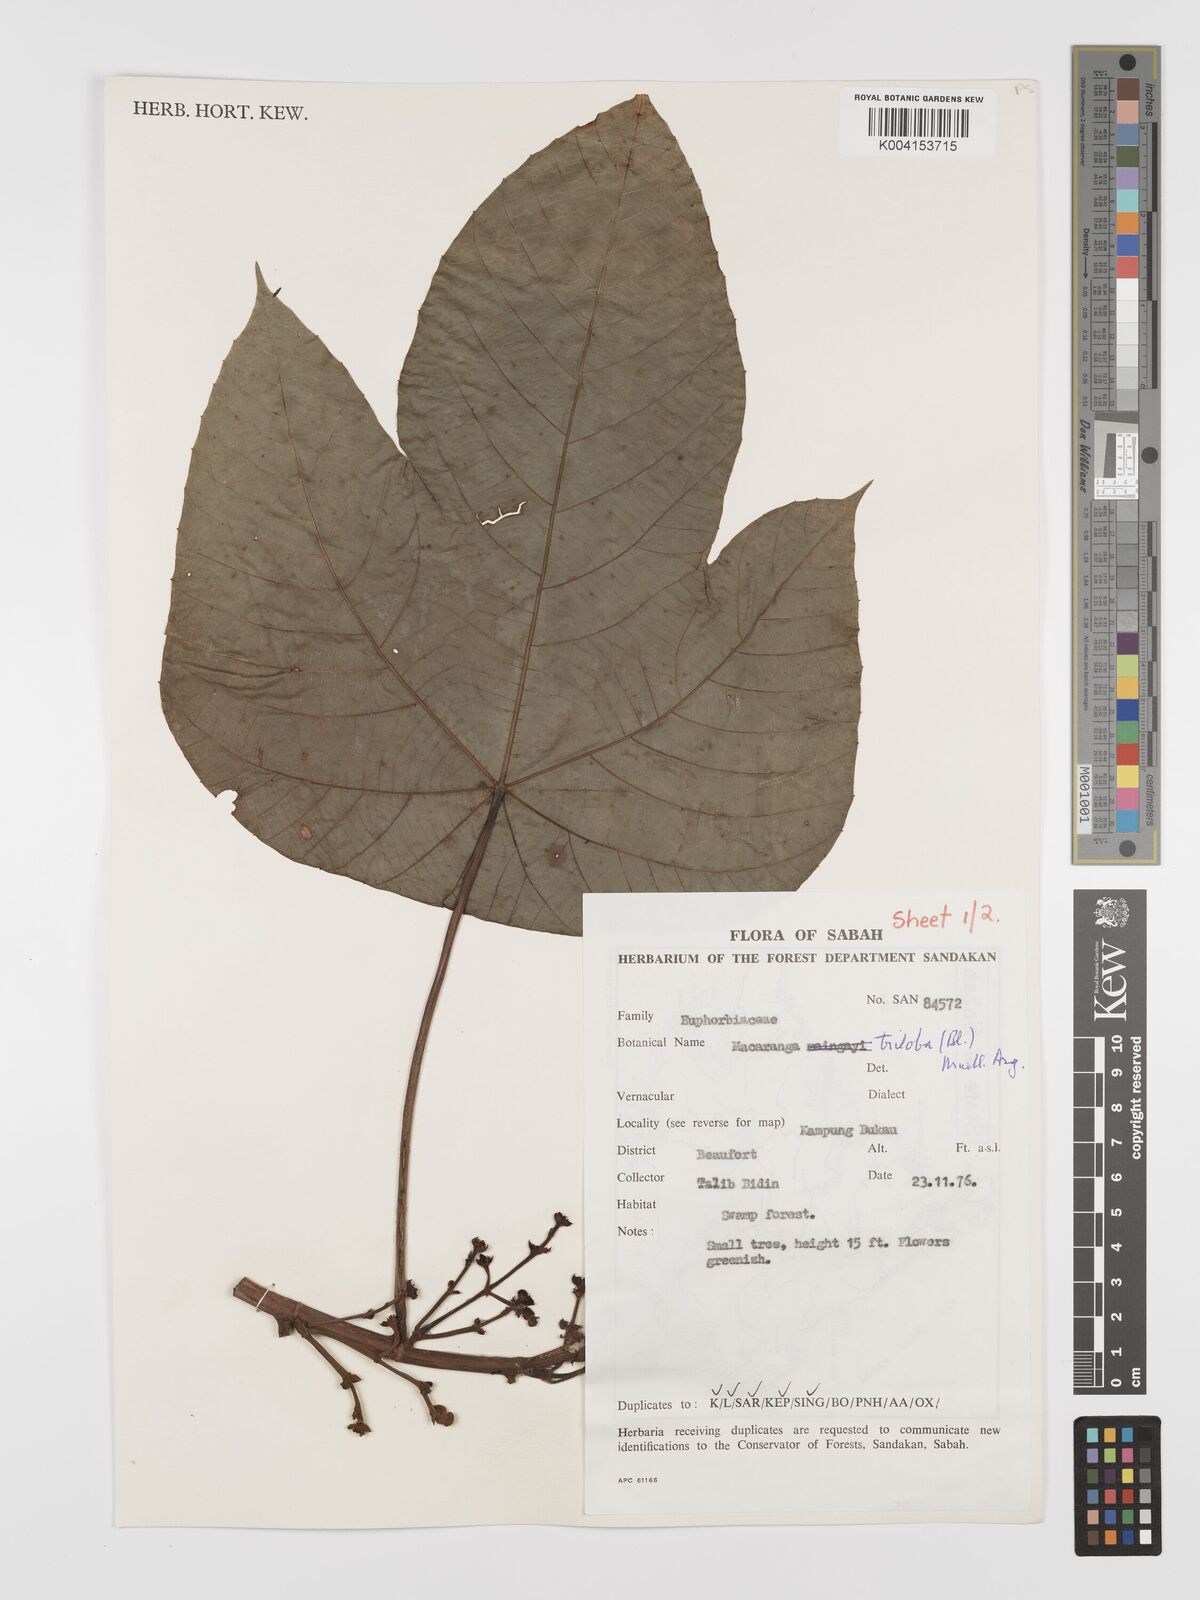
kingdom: Plantae
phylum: Tracheophyta
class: Magnoliopsida
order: Malpighiales
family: Euphorbiaceae
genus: Macaranga
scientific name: Macaranga triloba
